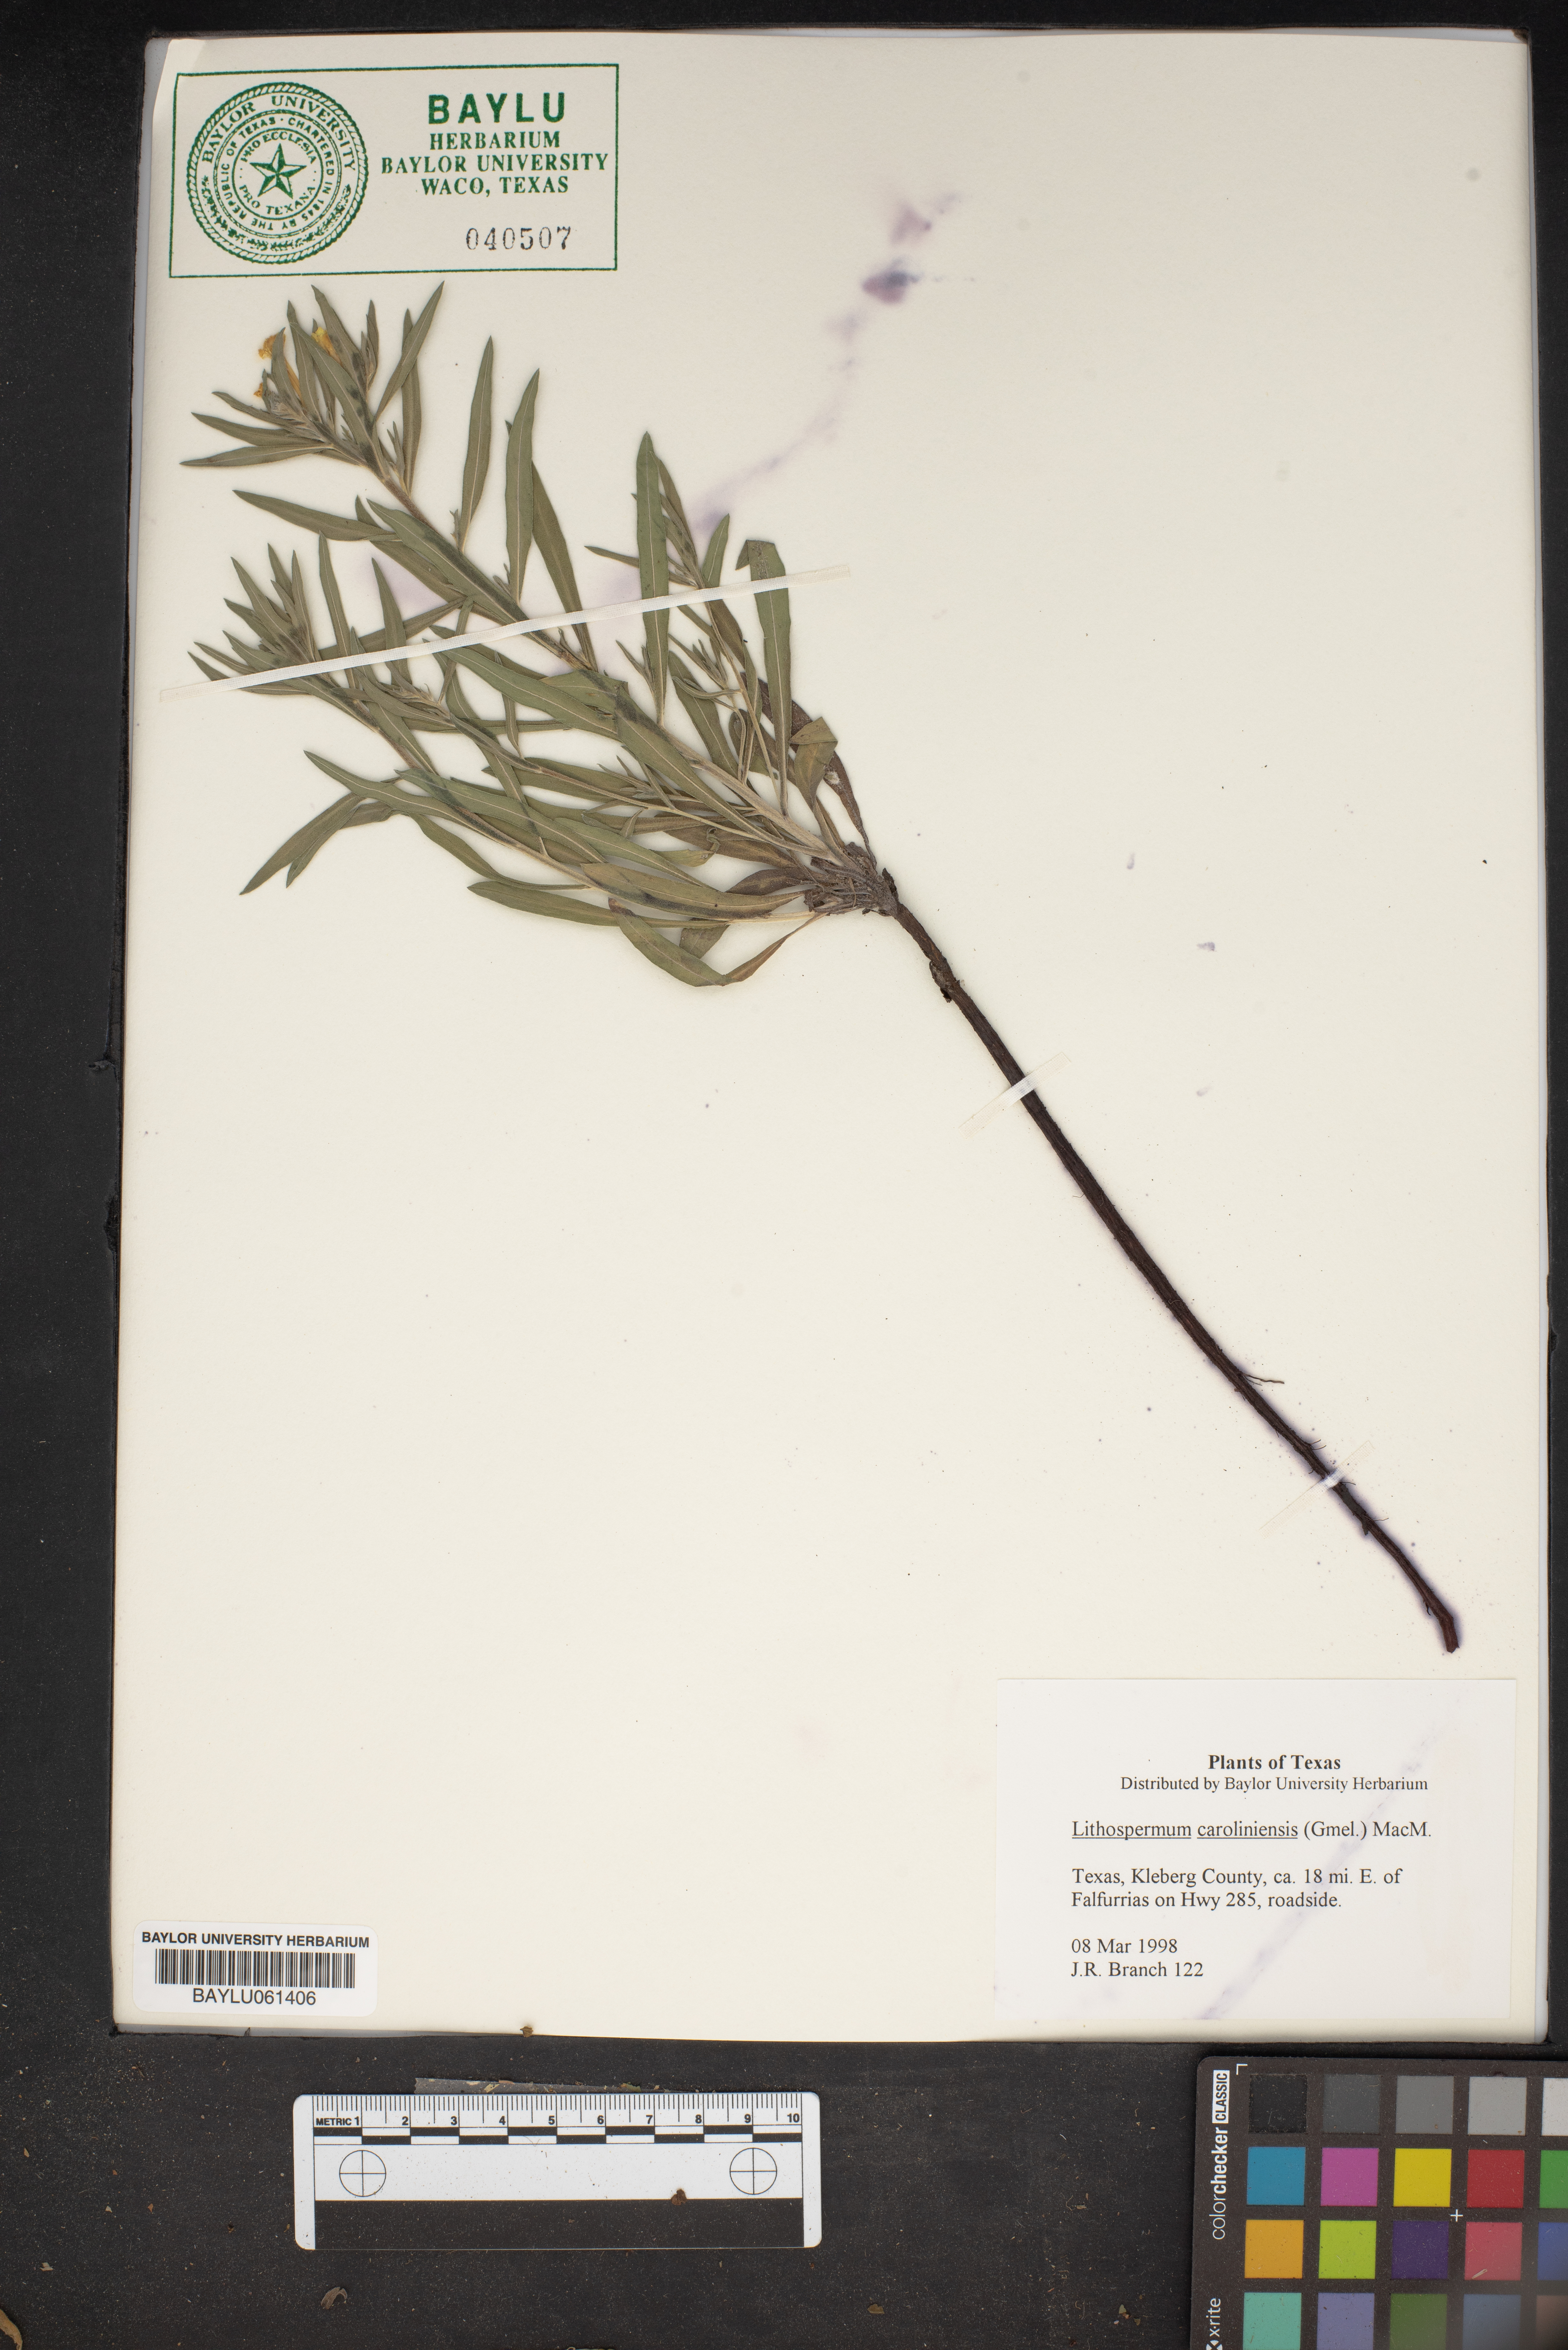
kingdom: Plantae
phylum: Tracheophyta
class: Magnoliopsida
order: Boraginales
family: Boraginaceae
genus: Lithospermum
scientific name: Lithospermum caroliniense
